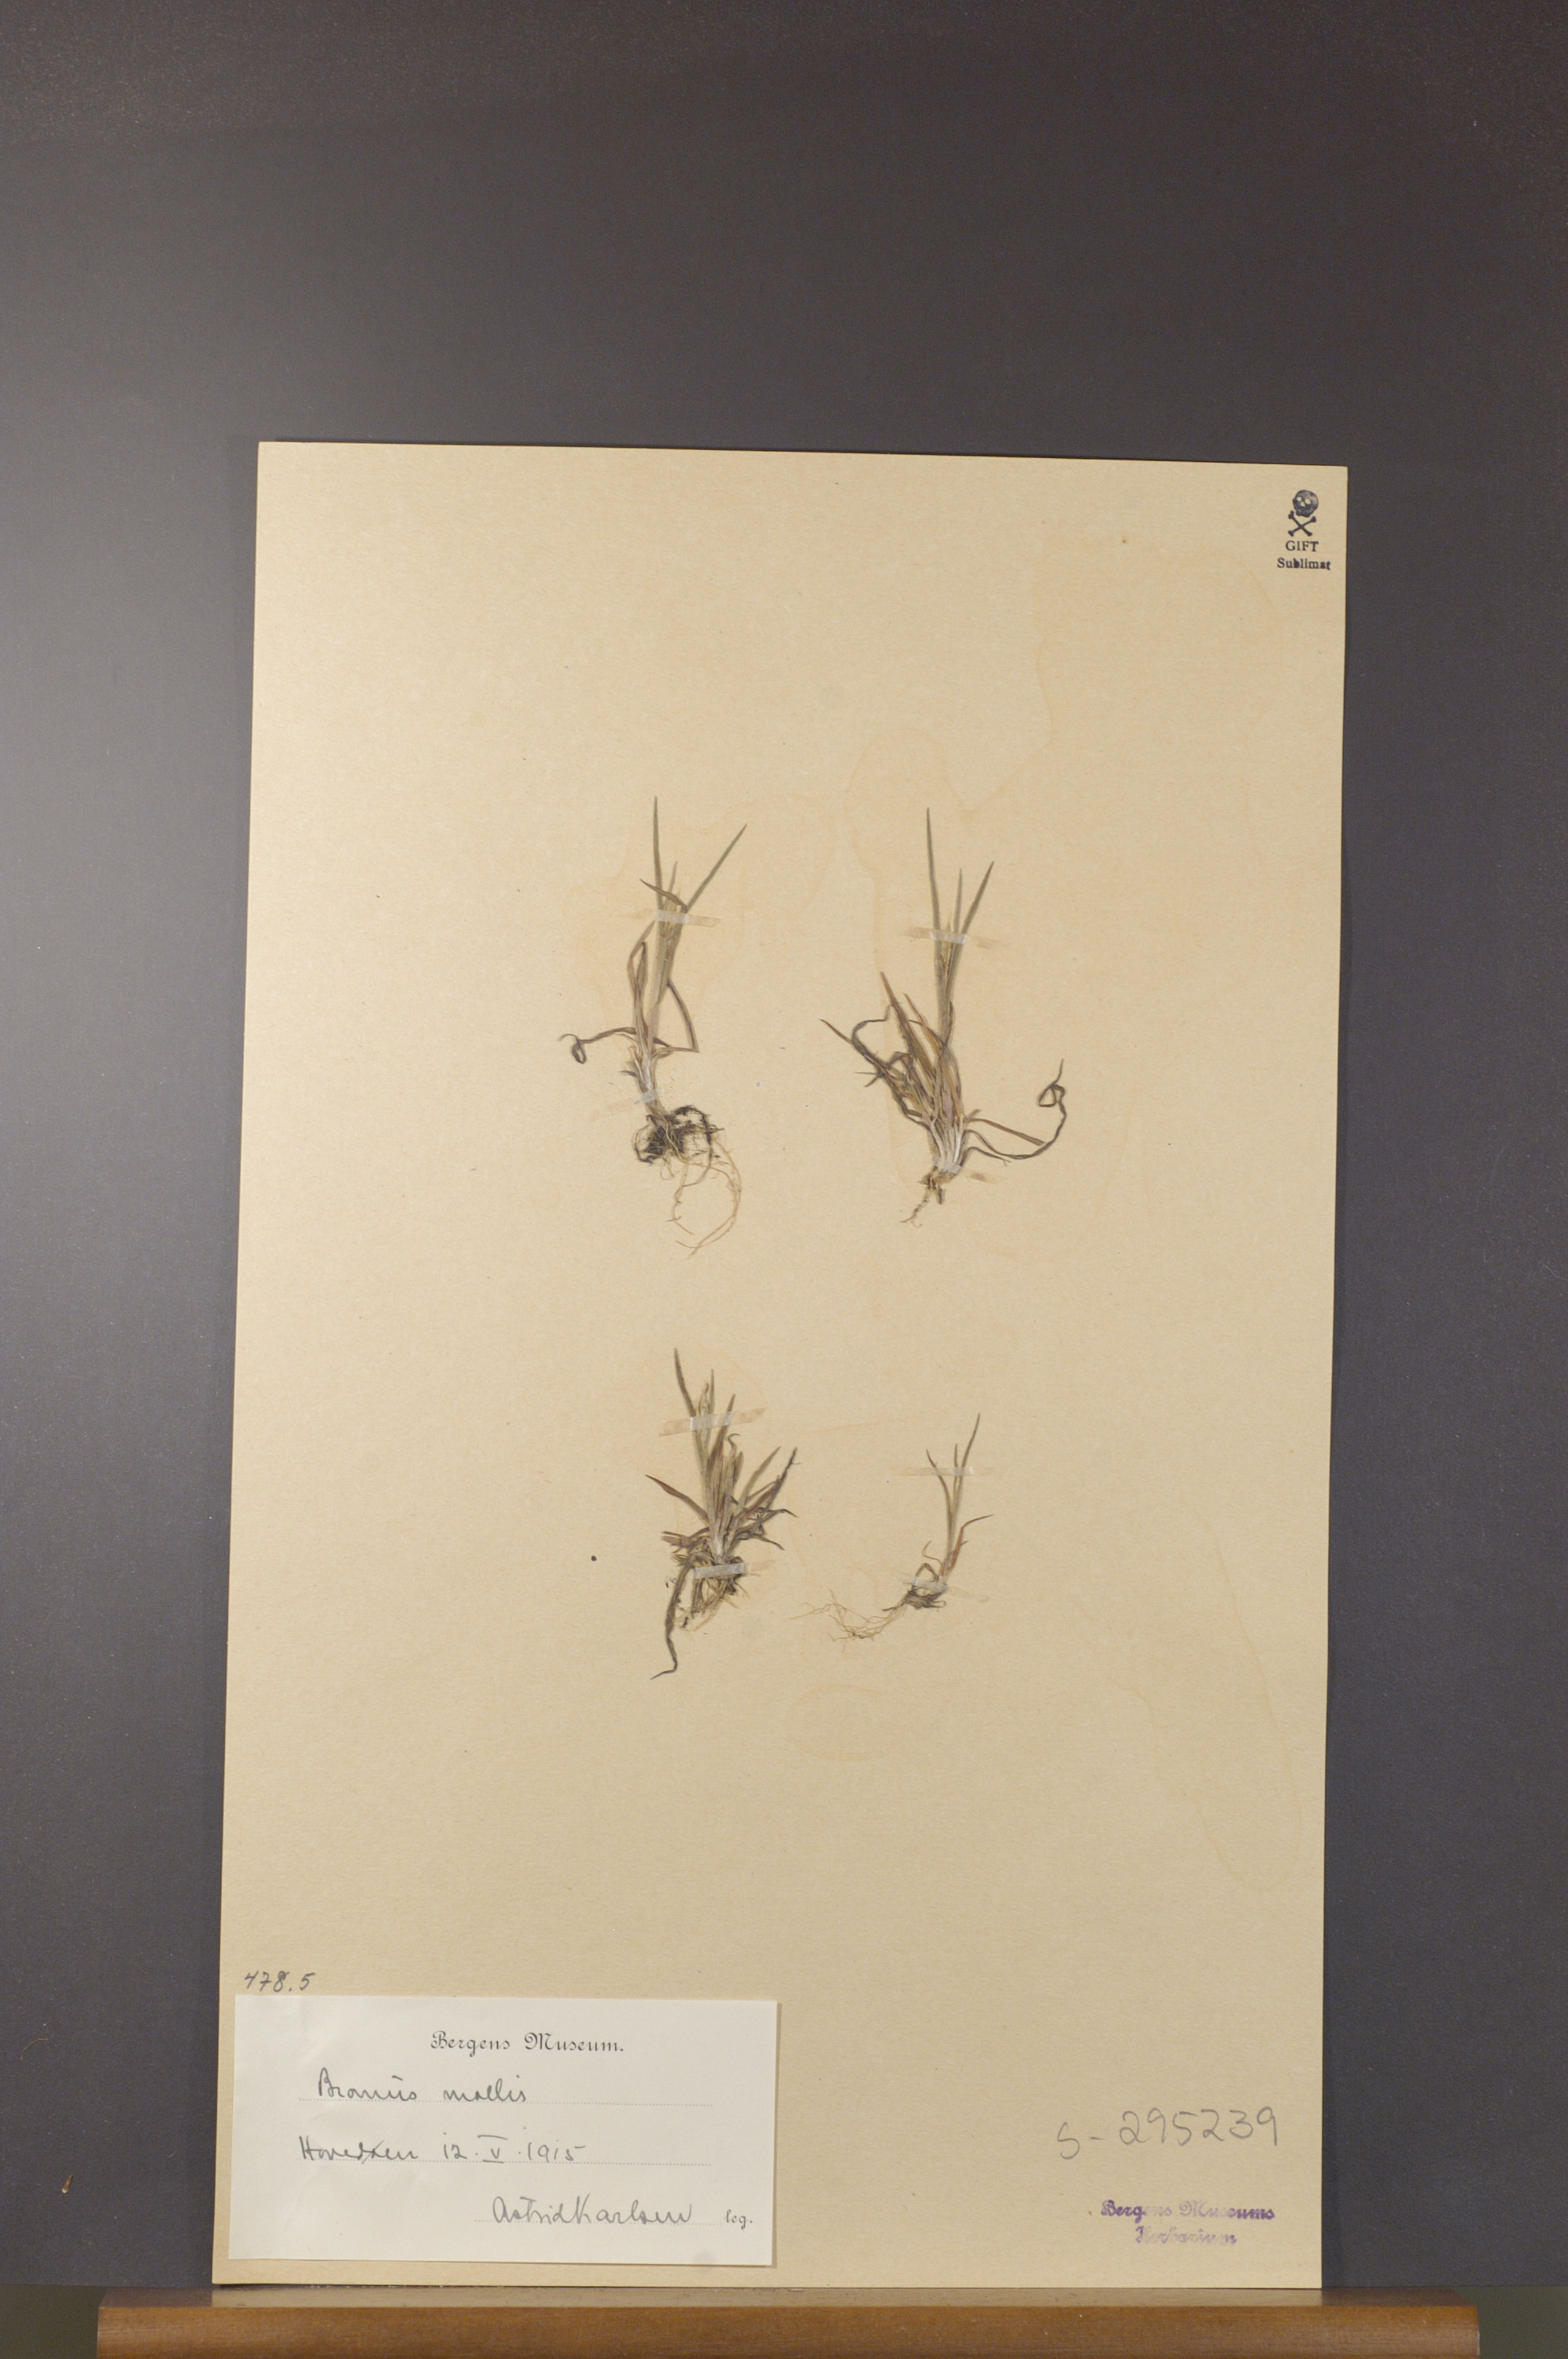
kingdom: Plantae
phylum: Tracheophyta
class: Liliopsida
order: Poales
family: Poaceae
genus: Bromus
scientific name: Bromus hordeaceus
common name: Soft brome
